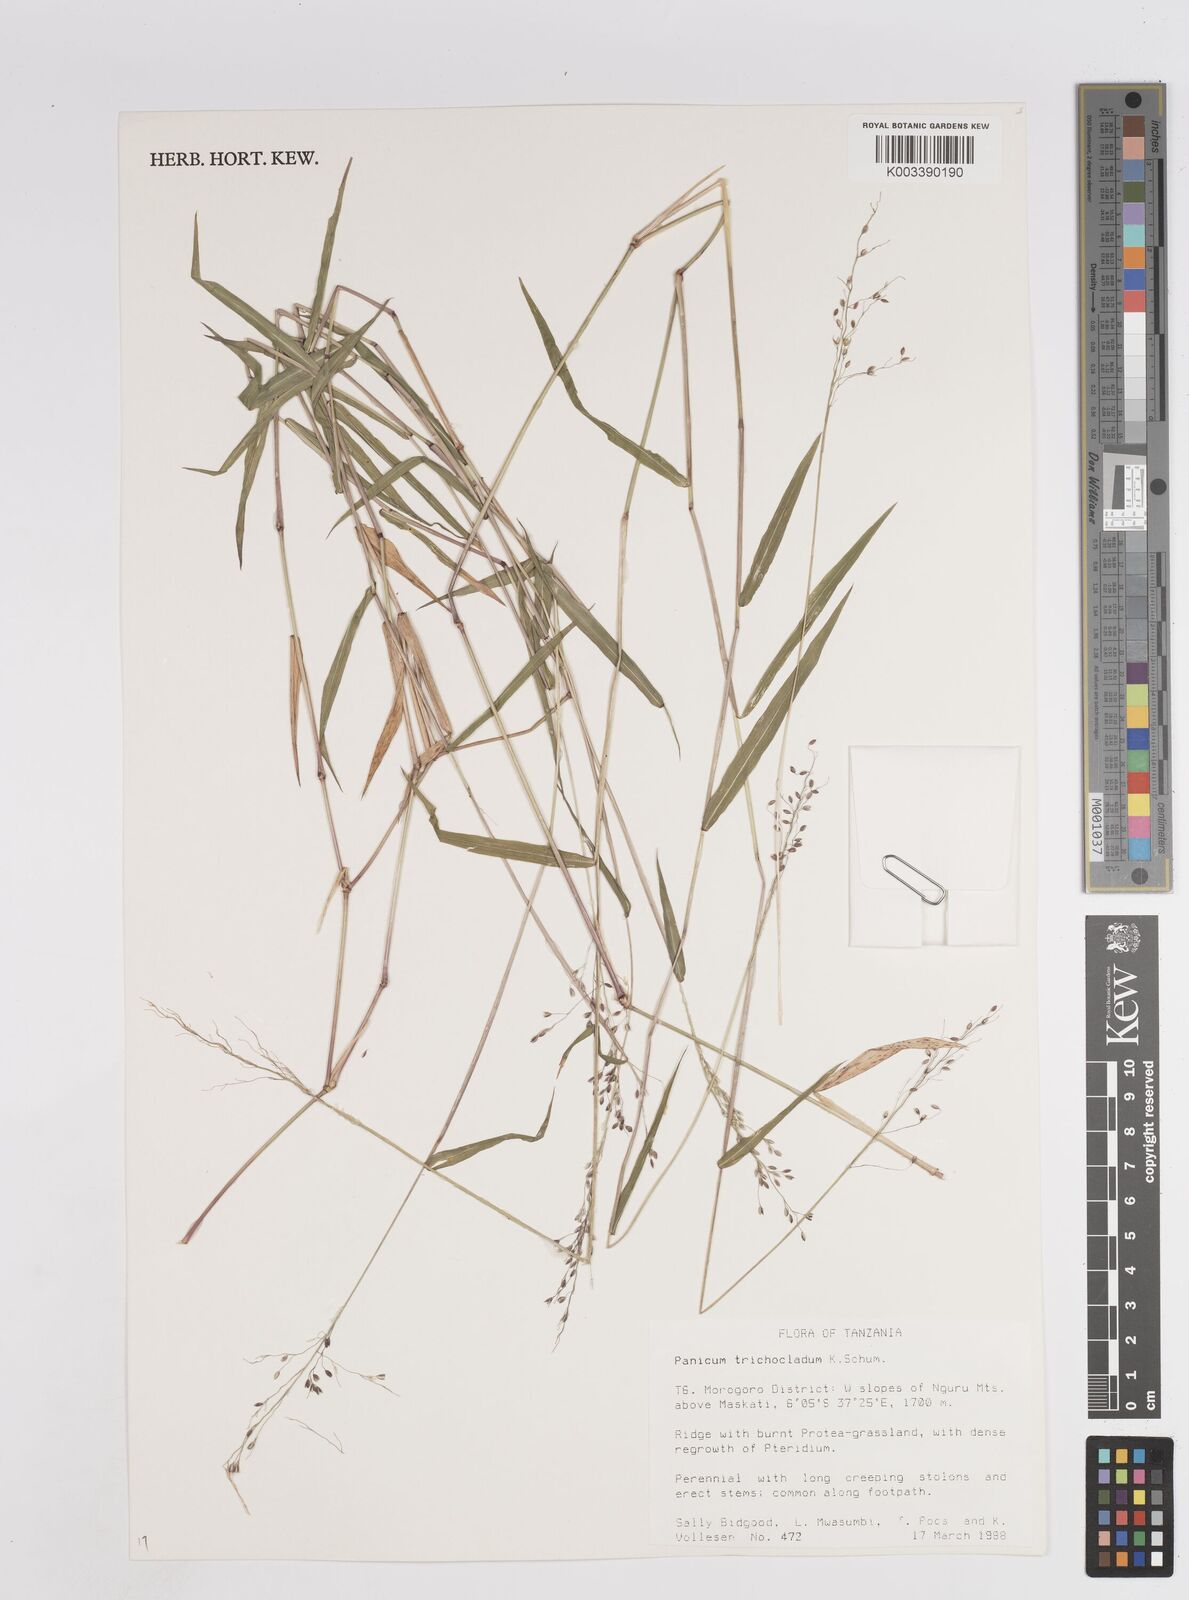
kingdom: Plantae
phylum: Tracheophyta
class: Liliopsida
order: Poales
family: Poaceae
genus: Panicum
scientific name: Panicum trichocladum
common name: Donkey grass
